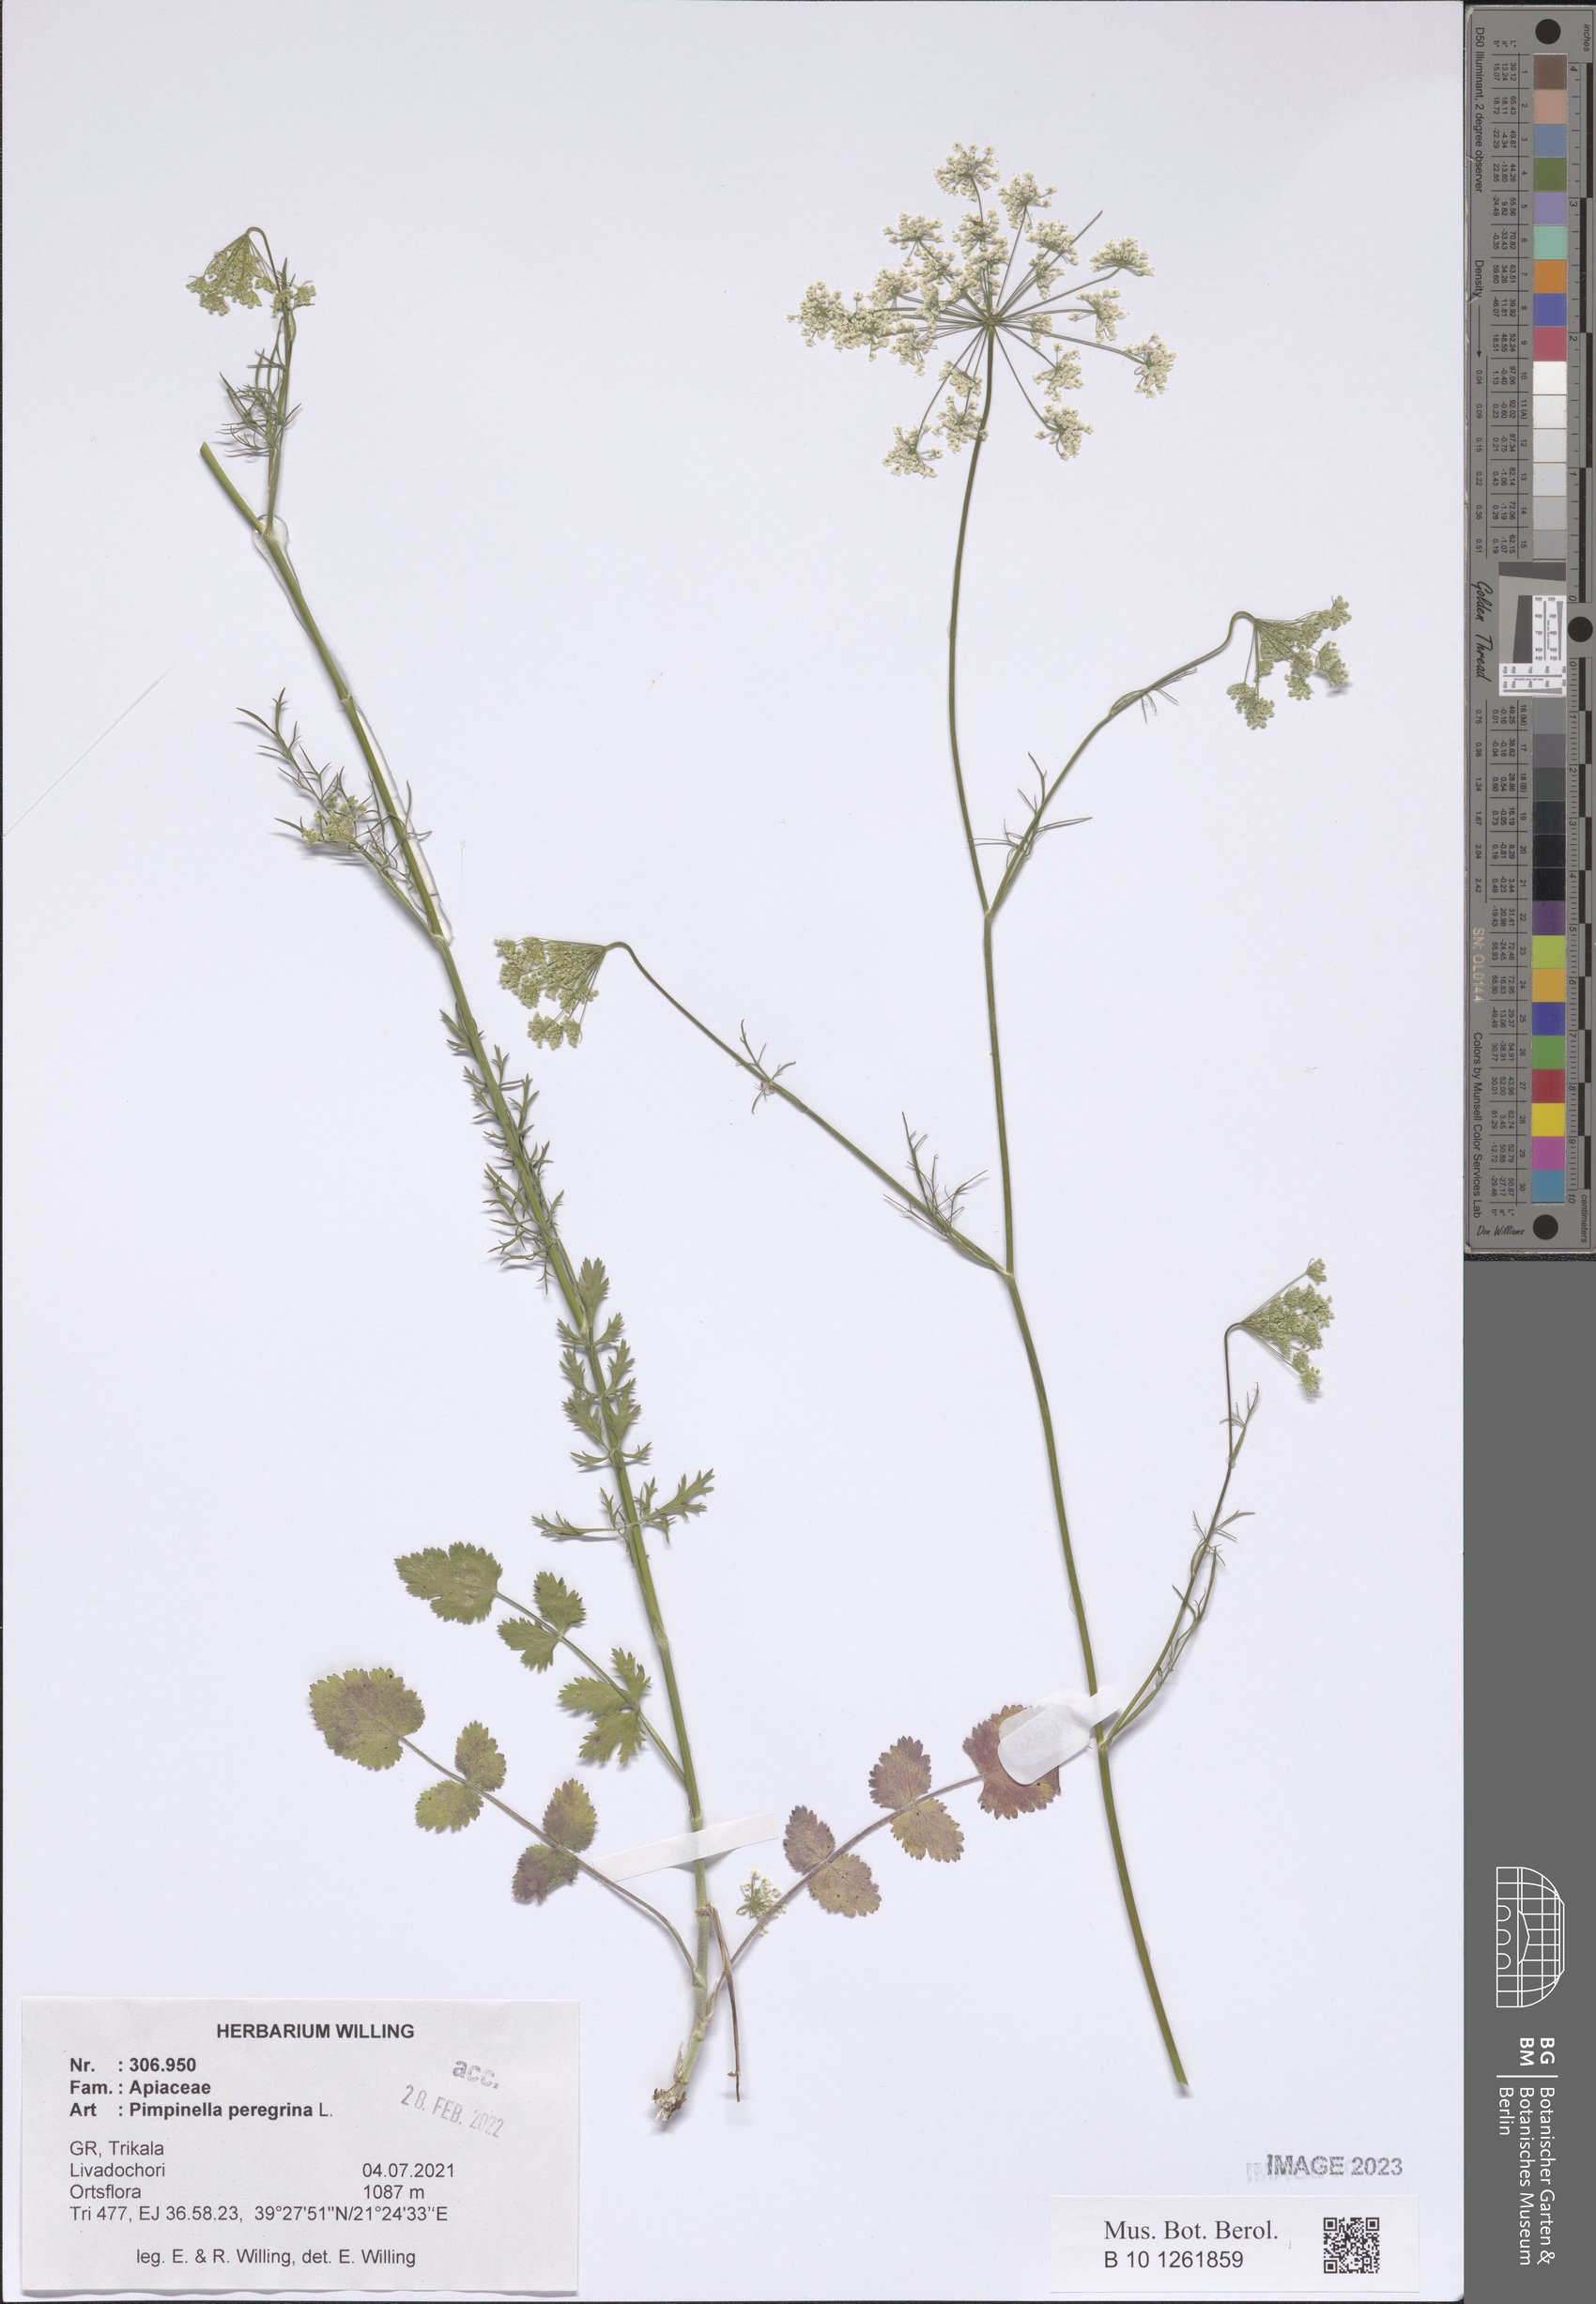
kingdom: Plantae
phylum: Tracheophyta
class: Magnoliopsida
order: Apiales
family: Apiaceae
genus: Pimpinella
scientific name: Pimpinella peregrina
